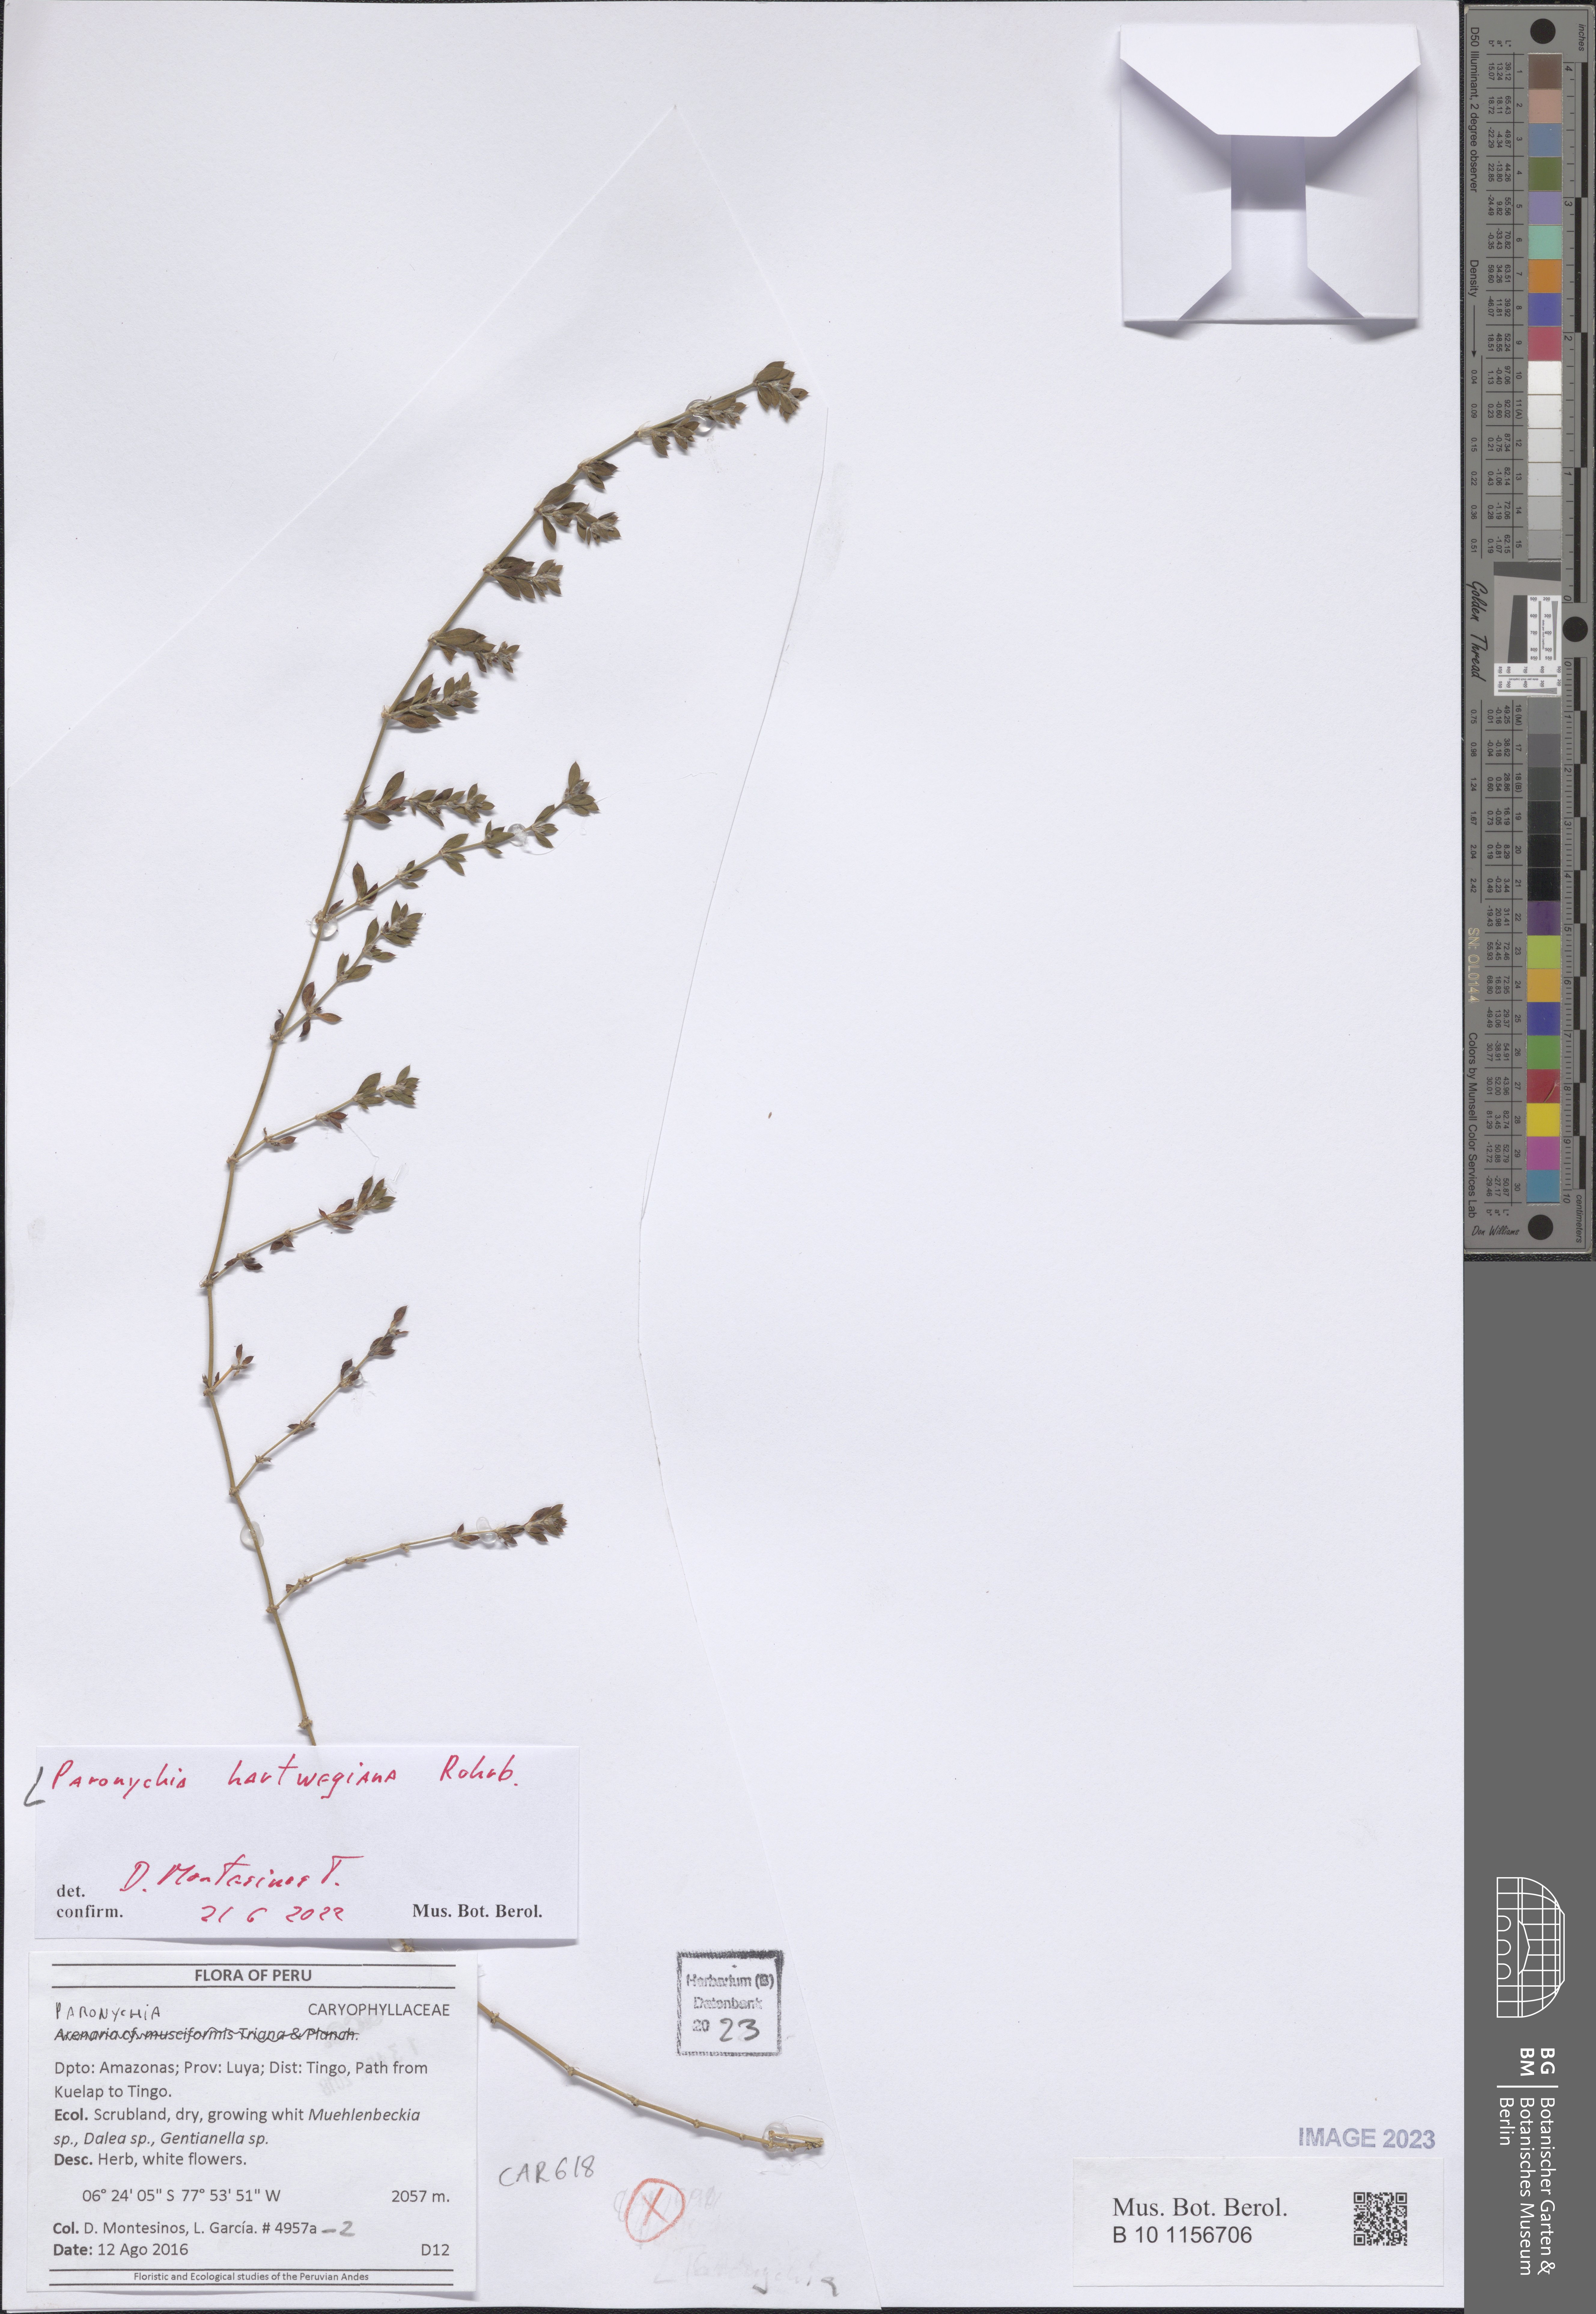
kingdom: Plantae
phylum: Tracheophyta
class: Magnoliopsida
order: Caryophyllales
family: Caryophyllaceae
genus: Paronychia
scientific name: Paronychia hartwegiana
